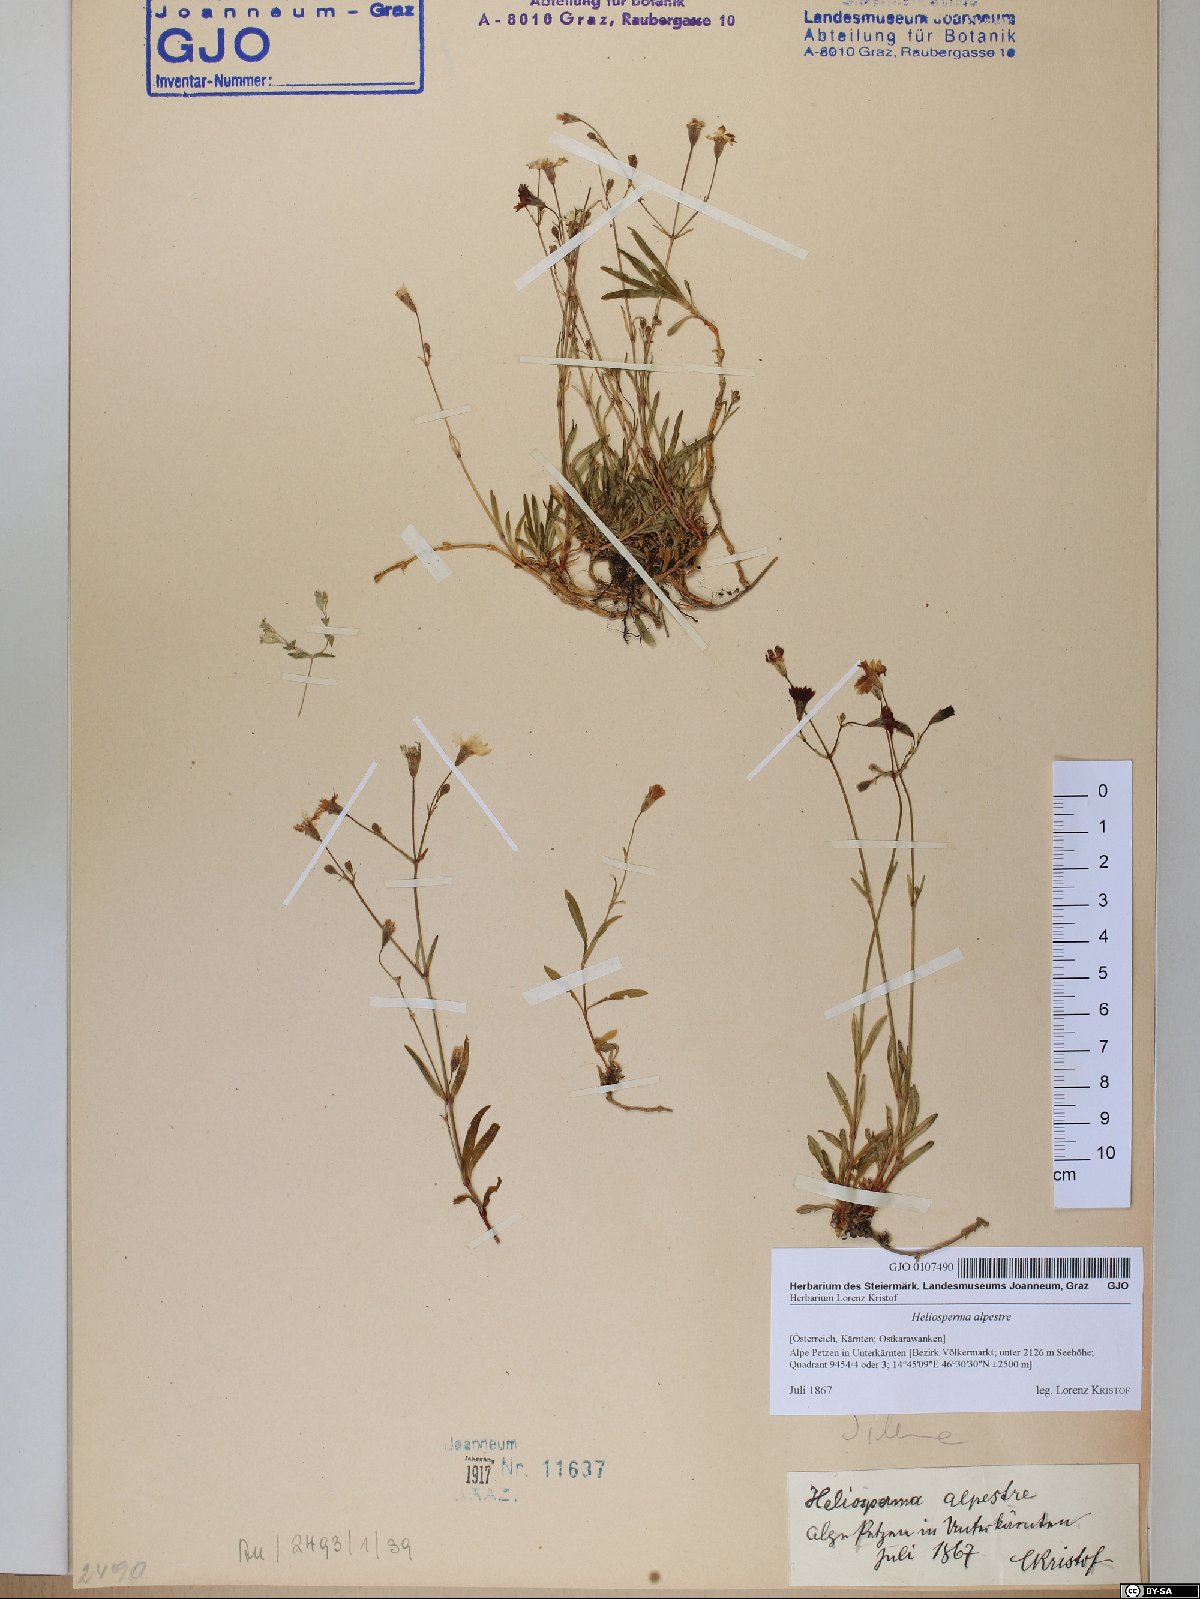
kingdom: Plantae
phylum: Tracheophyta
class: Magnoliopsida
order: Caryophyllales
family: Caryophyllaceae
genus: Heliosperma
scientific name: Heliosperma alpestre
